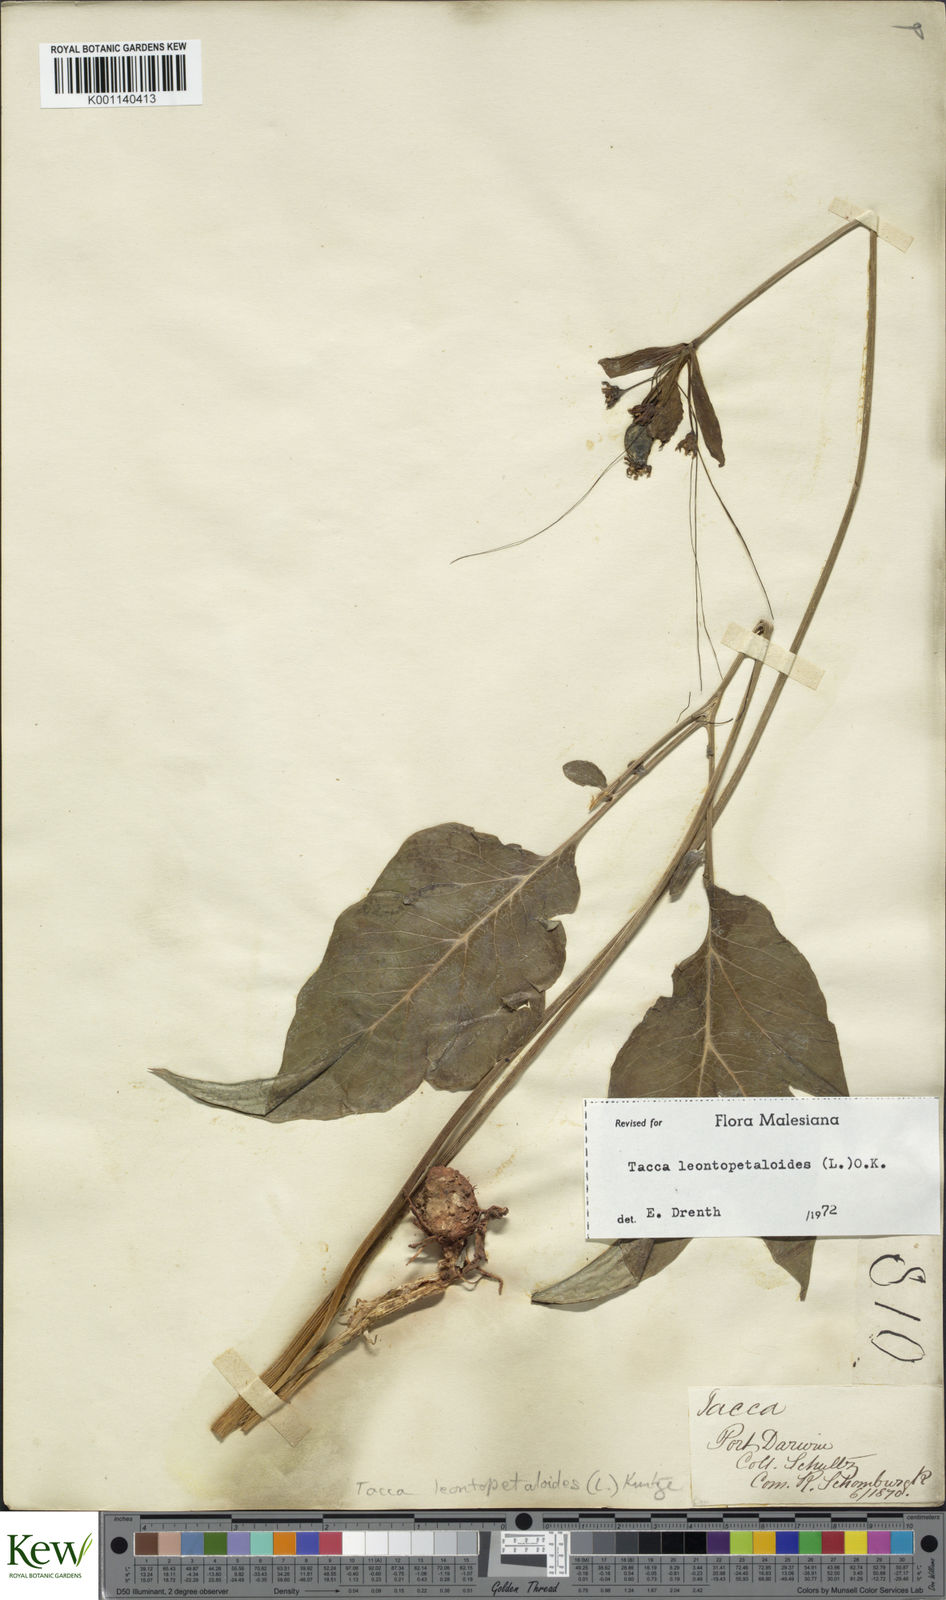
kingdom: Plantae
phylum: Tracheophyta
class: Liliopsida
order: Dioscoreales
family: Dioscoreaceae
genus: Tacca
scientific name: Tacca leontopetaloides
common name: Arrowroot
